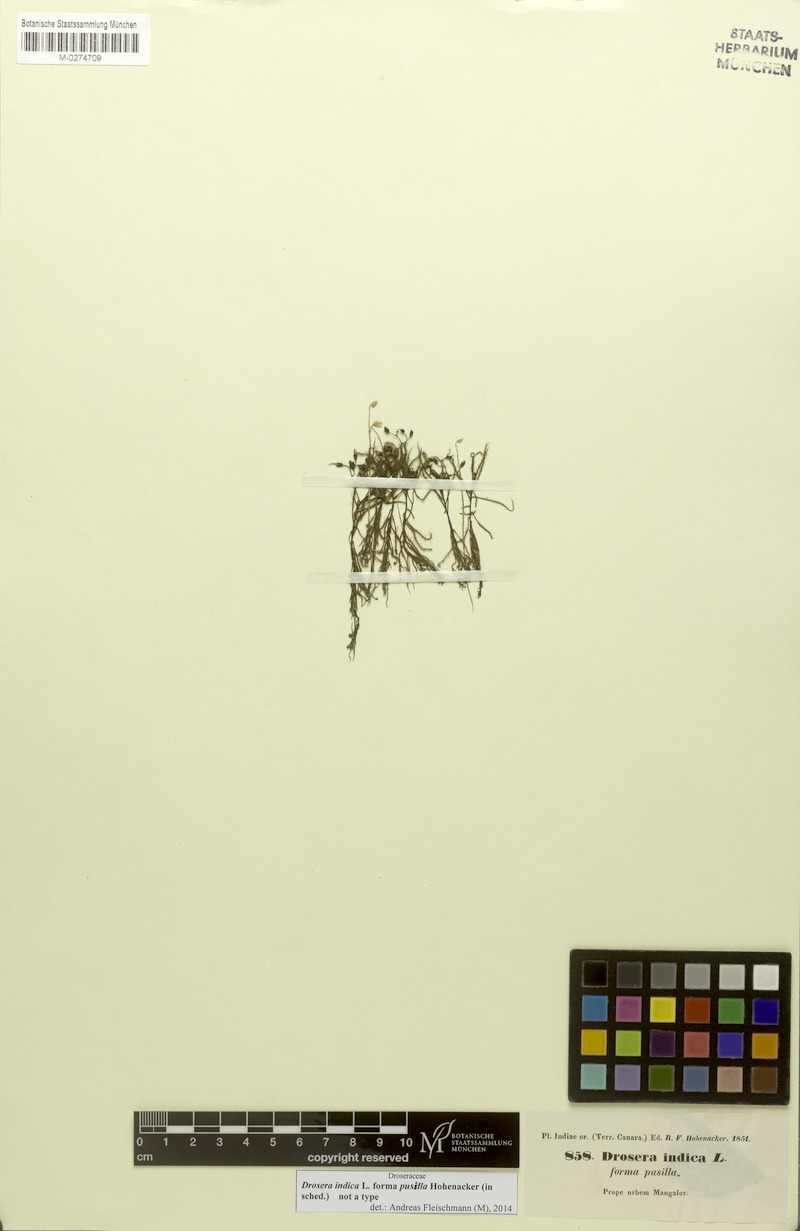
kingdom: Plantae
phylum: Tracheophyta
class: Magnoliopsida
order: Caryophyllales
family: Droseraceae
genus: Drosera
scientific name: Drosera indica
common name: Indian sundew
